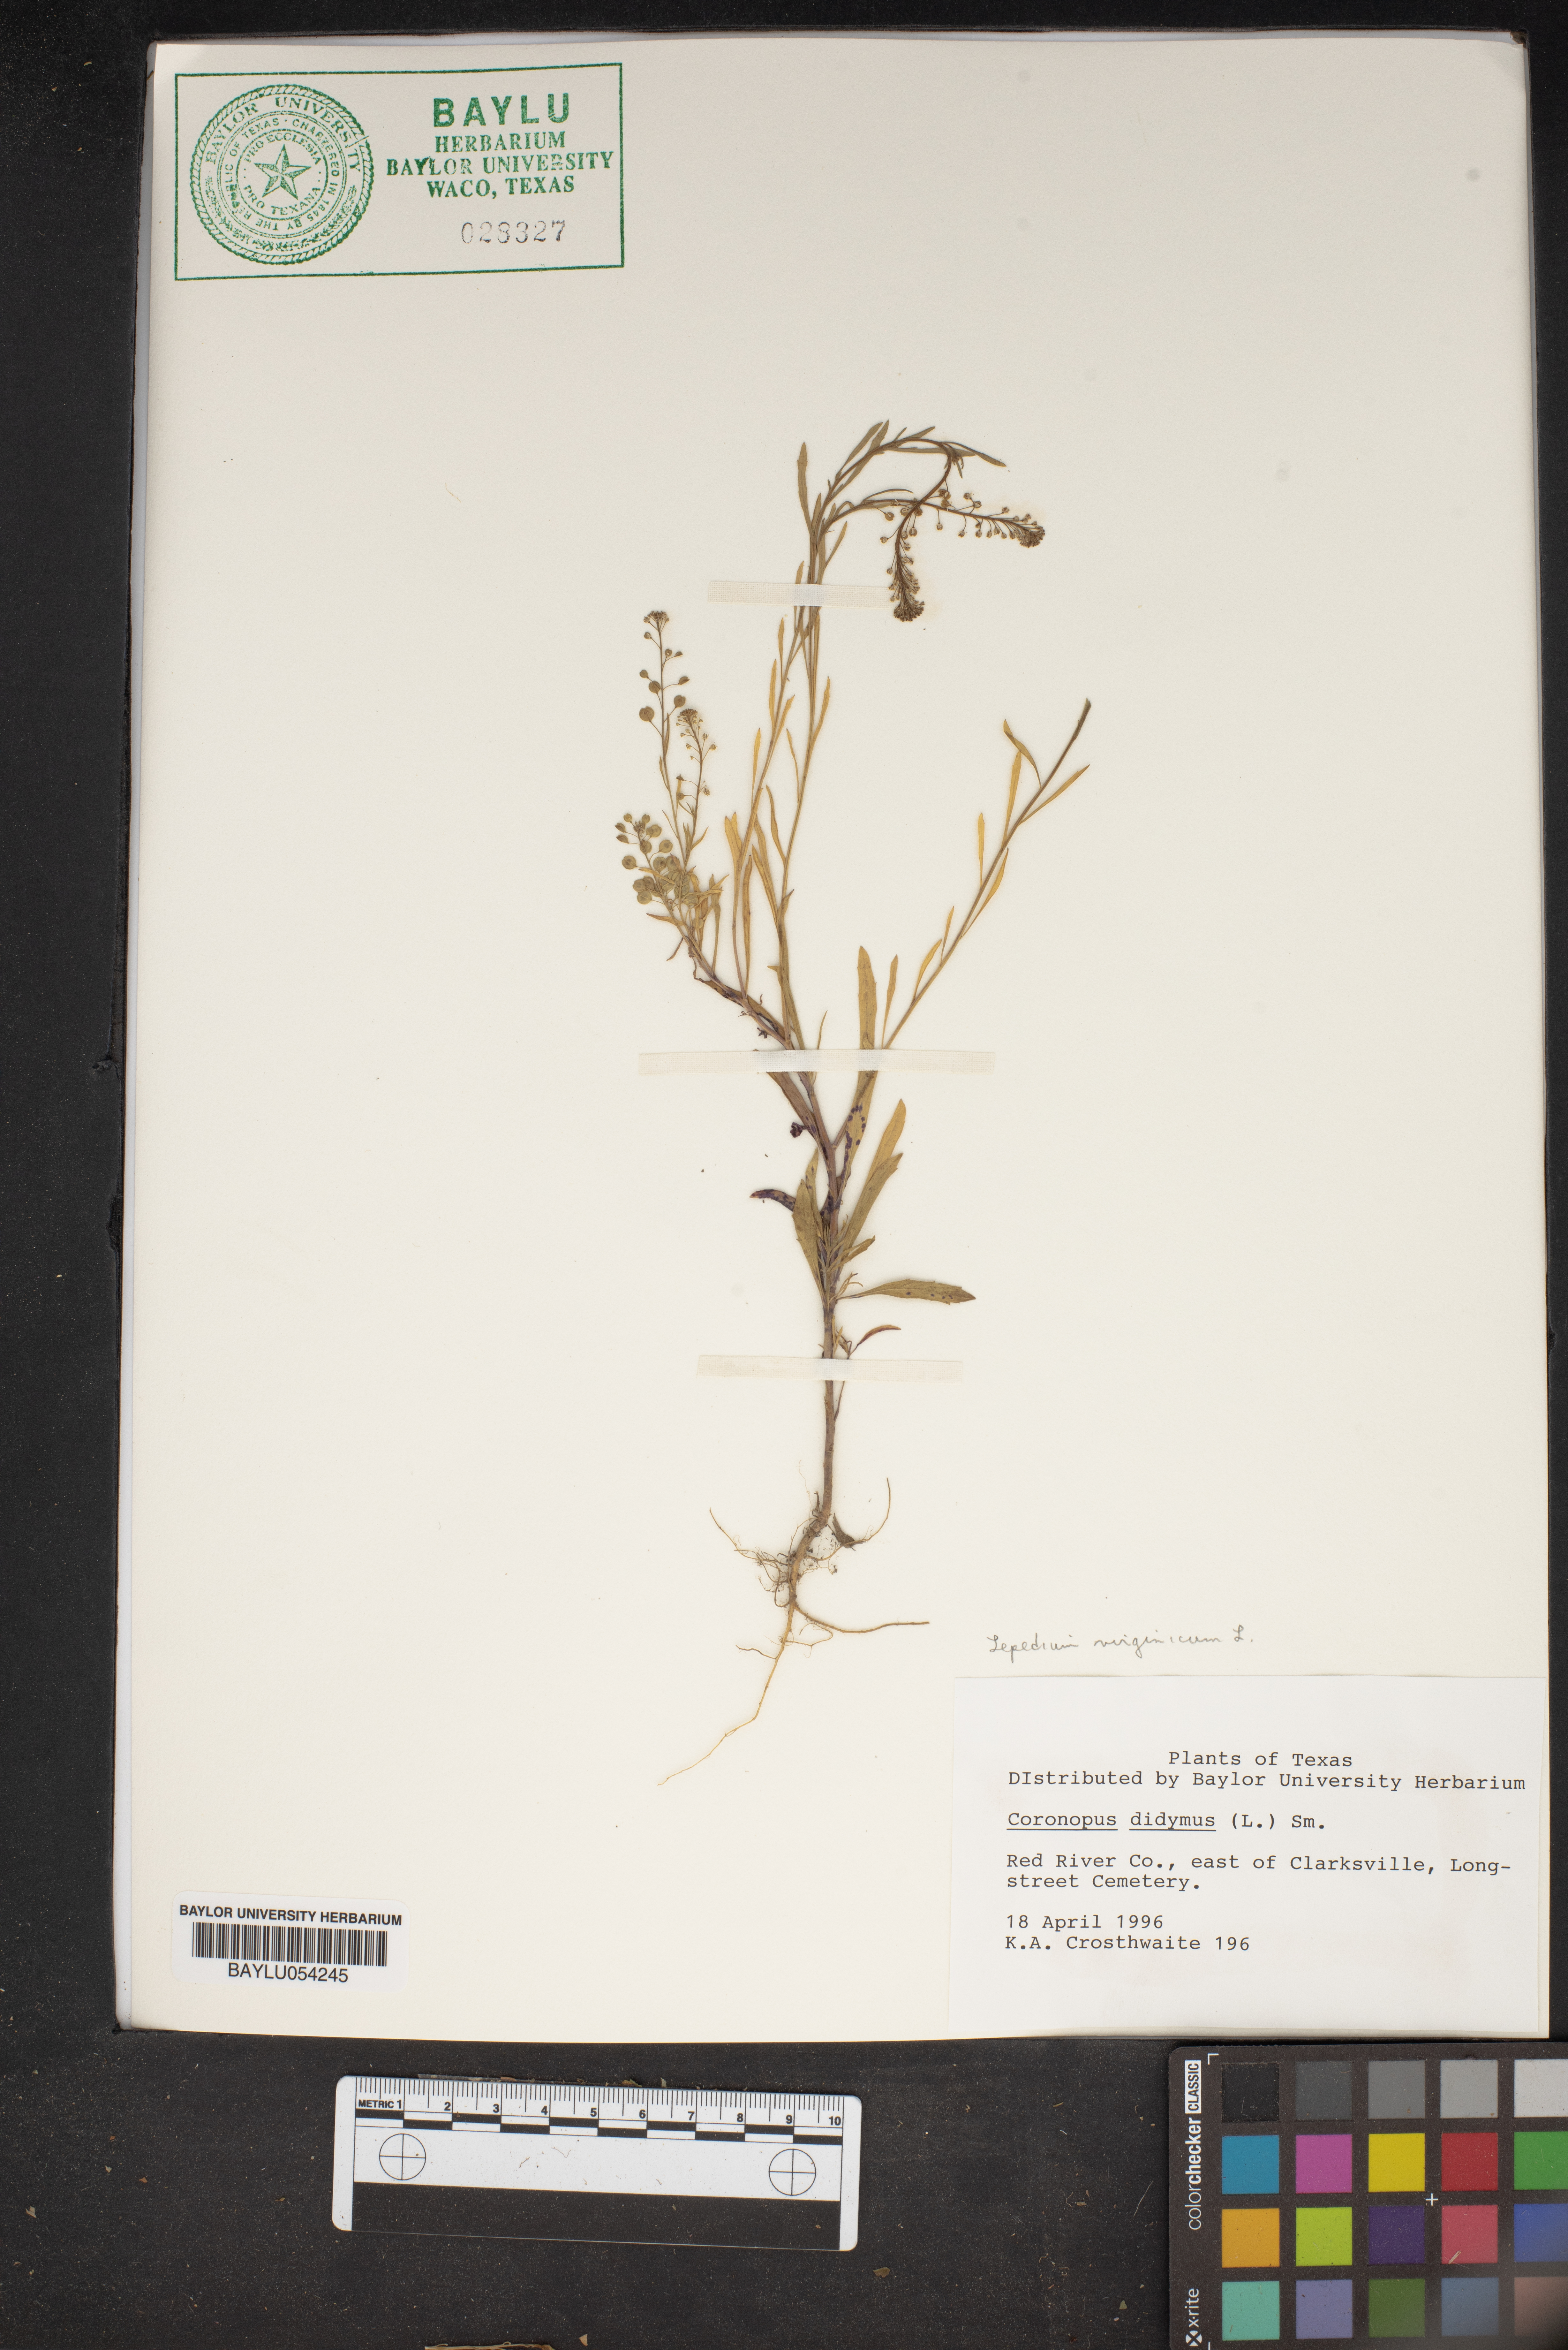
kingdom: Plantae
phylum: Tracheophyta
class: Magnoliopsida
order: Brassicales
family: Brassicaceae
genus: Lepidium
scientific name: Lepidium didymum
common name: Lesser swinecress
